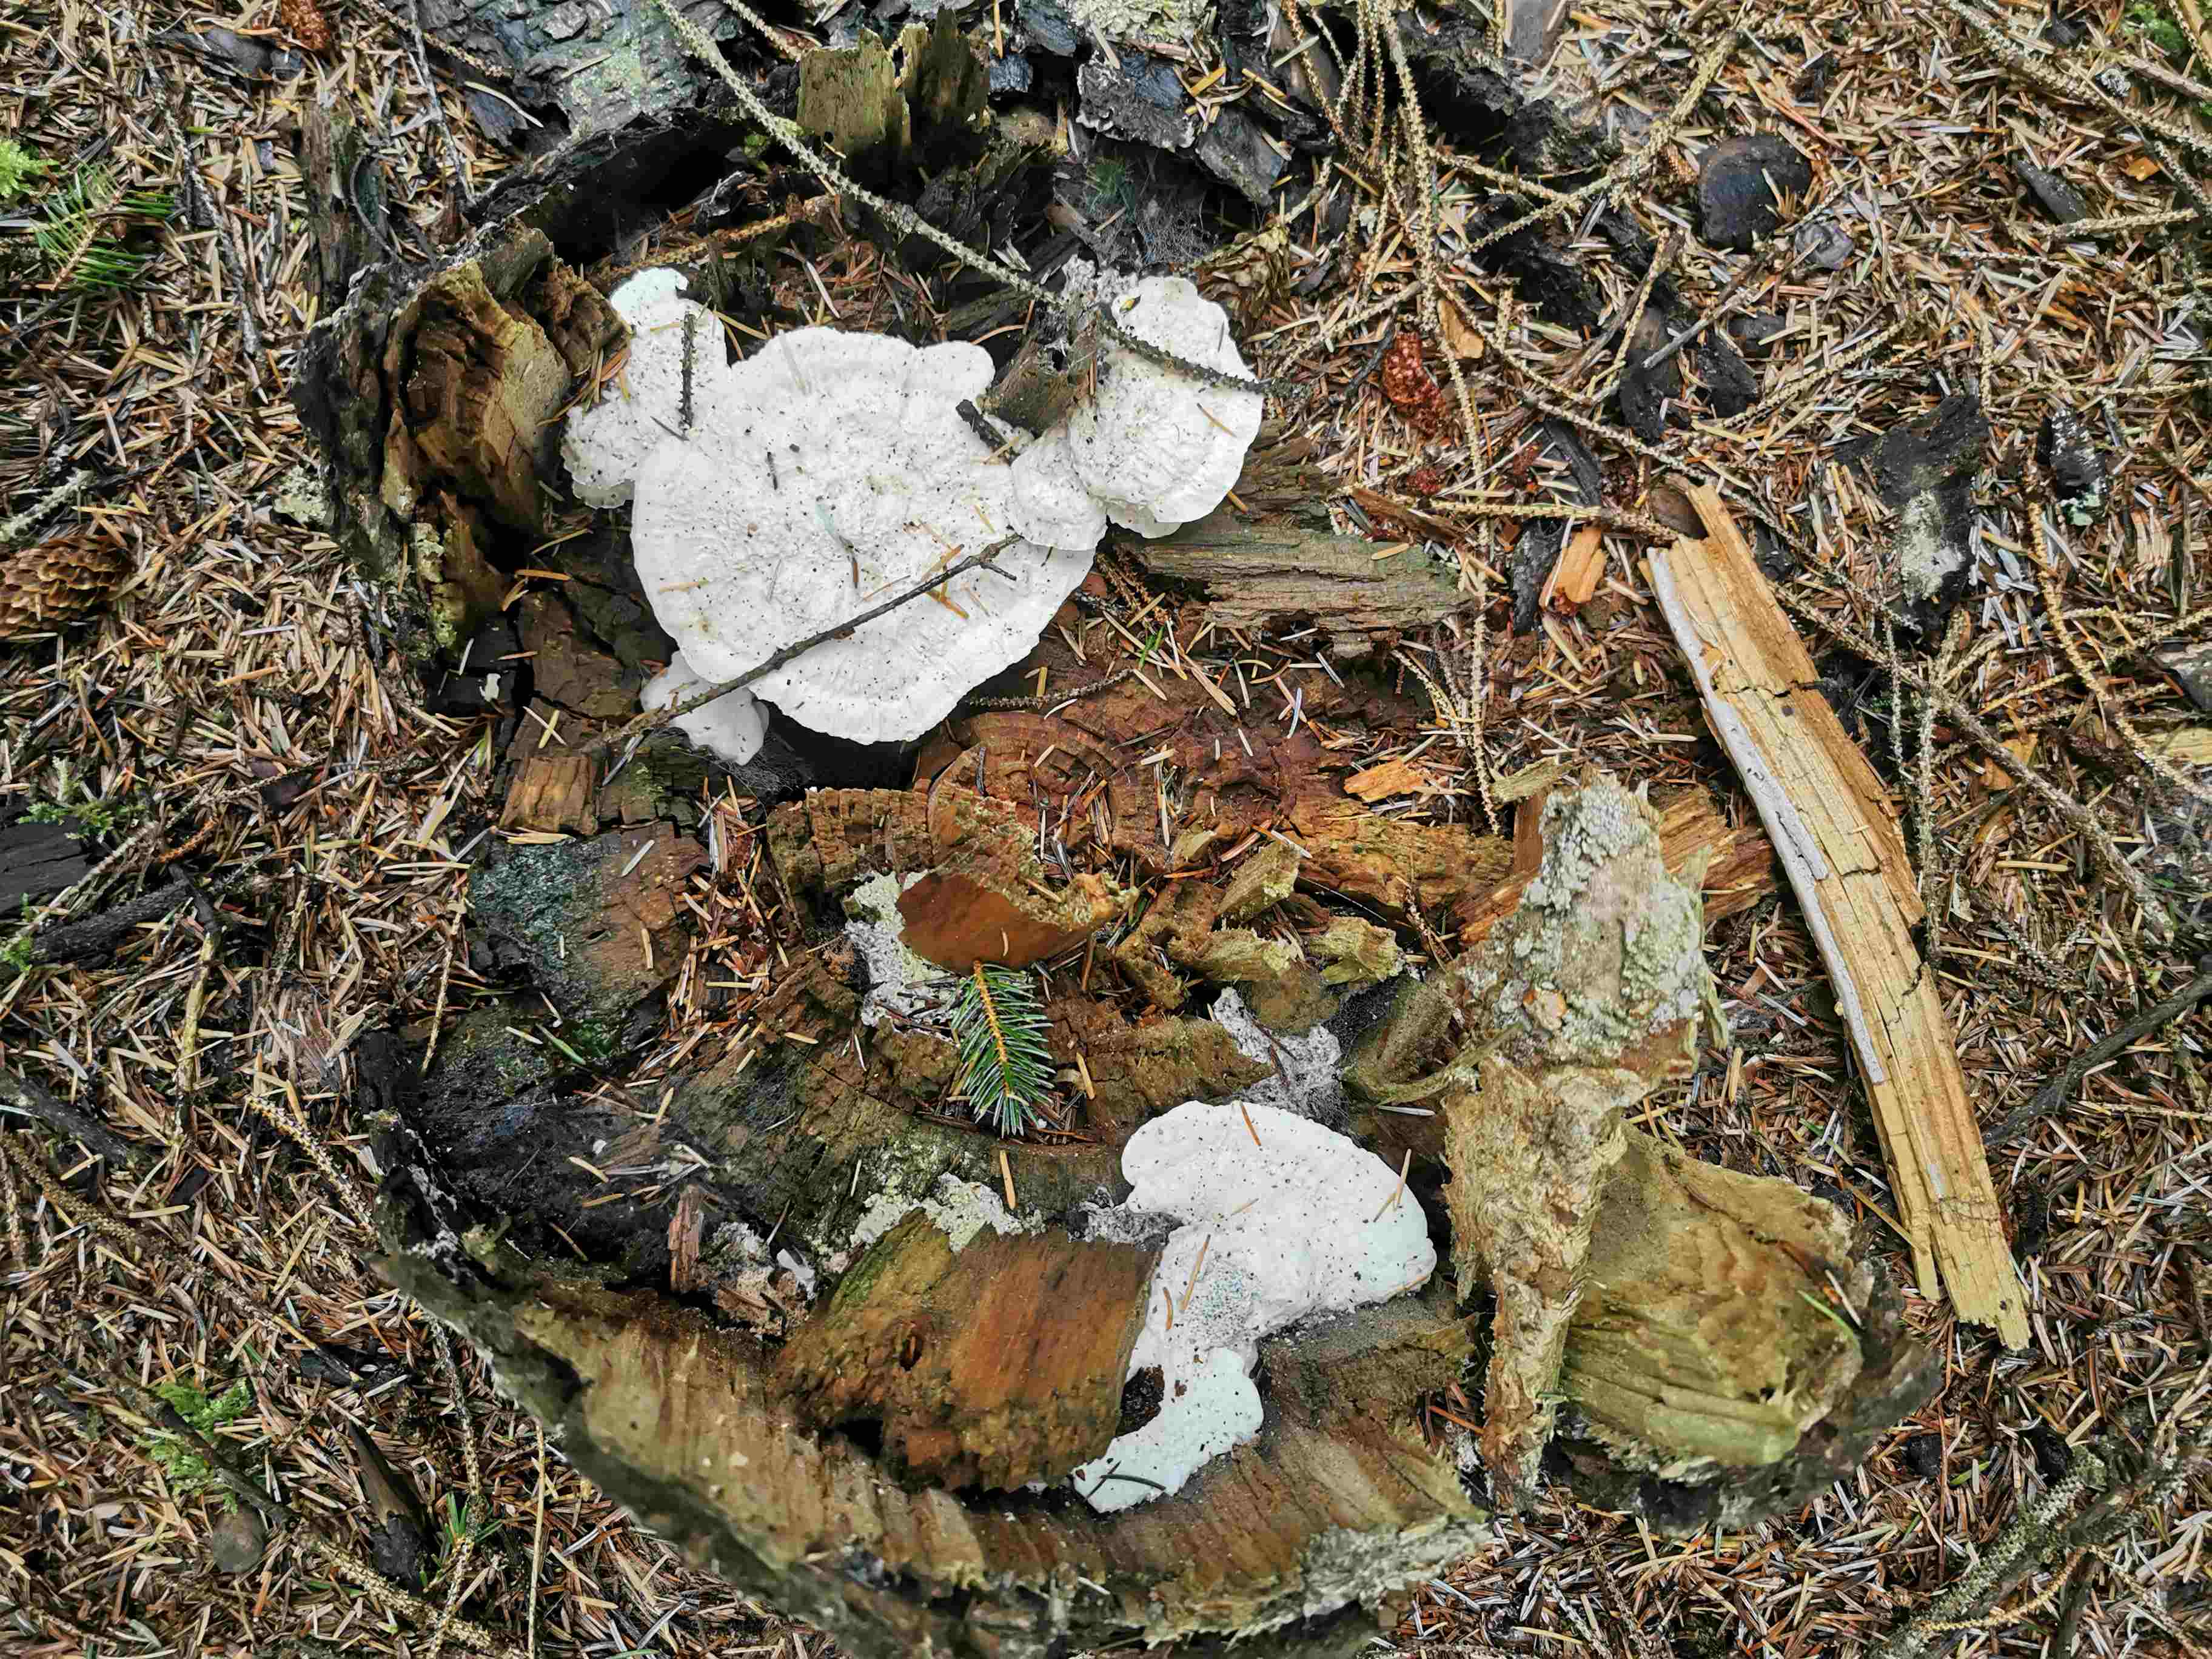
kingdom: Fungi
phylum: Basidiomycota
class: Agaricomycetes
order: Polyporales
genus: Amaropostia
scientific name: Amaropostia stiptica
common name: bitter kødporesvamp
